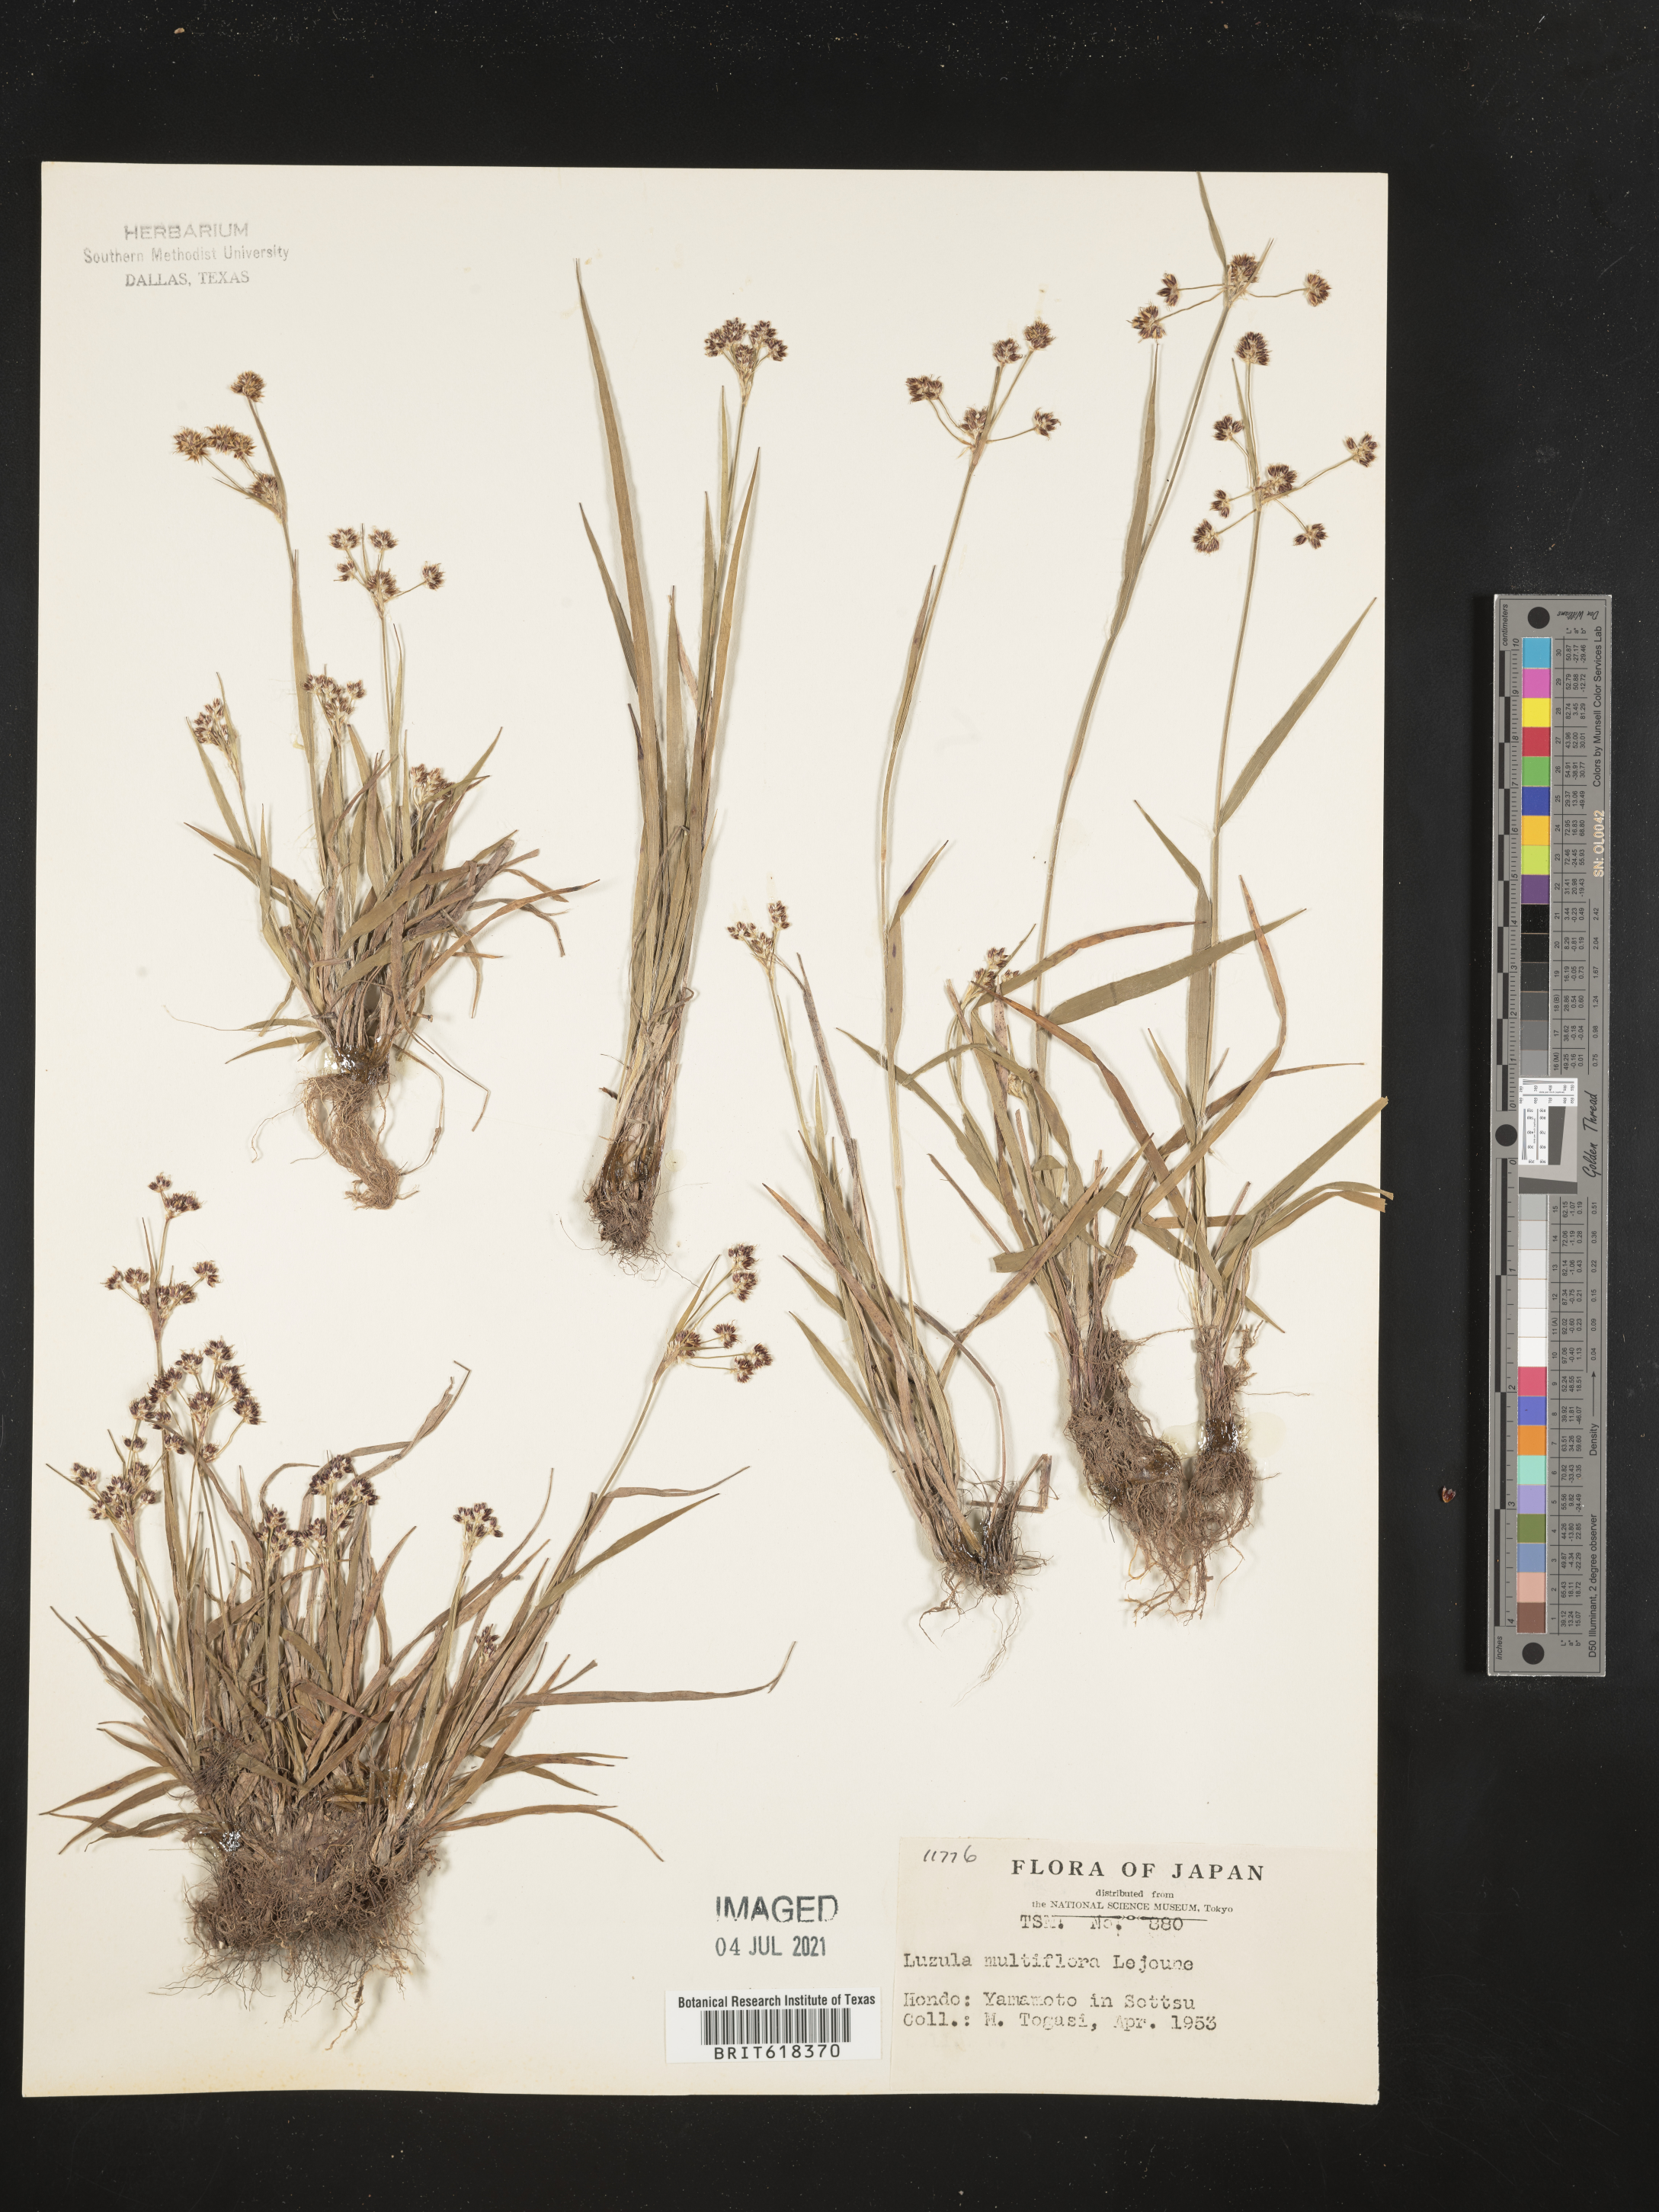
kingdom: Plantae
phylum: Tracheophyta
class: Liliopsida
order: Poales
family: Juncaceae
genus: Luzula
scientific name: Luzula multiflora
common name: Heath wood-rush
